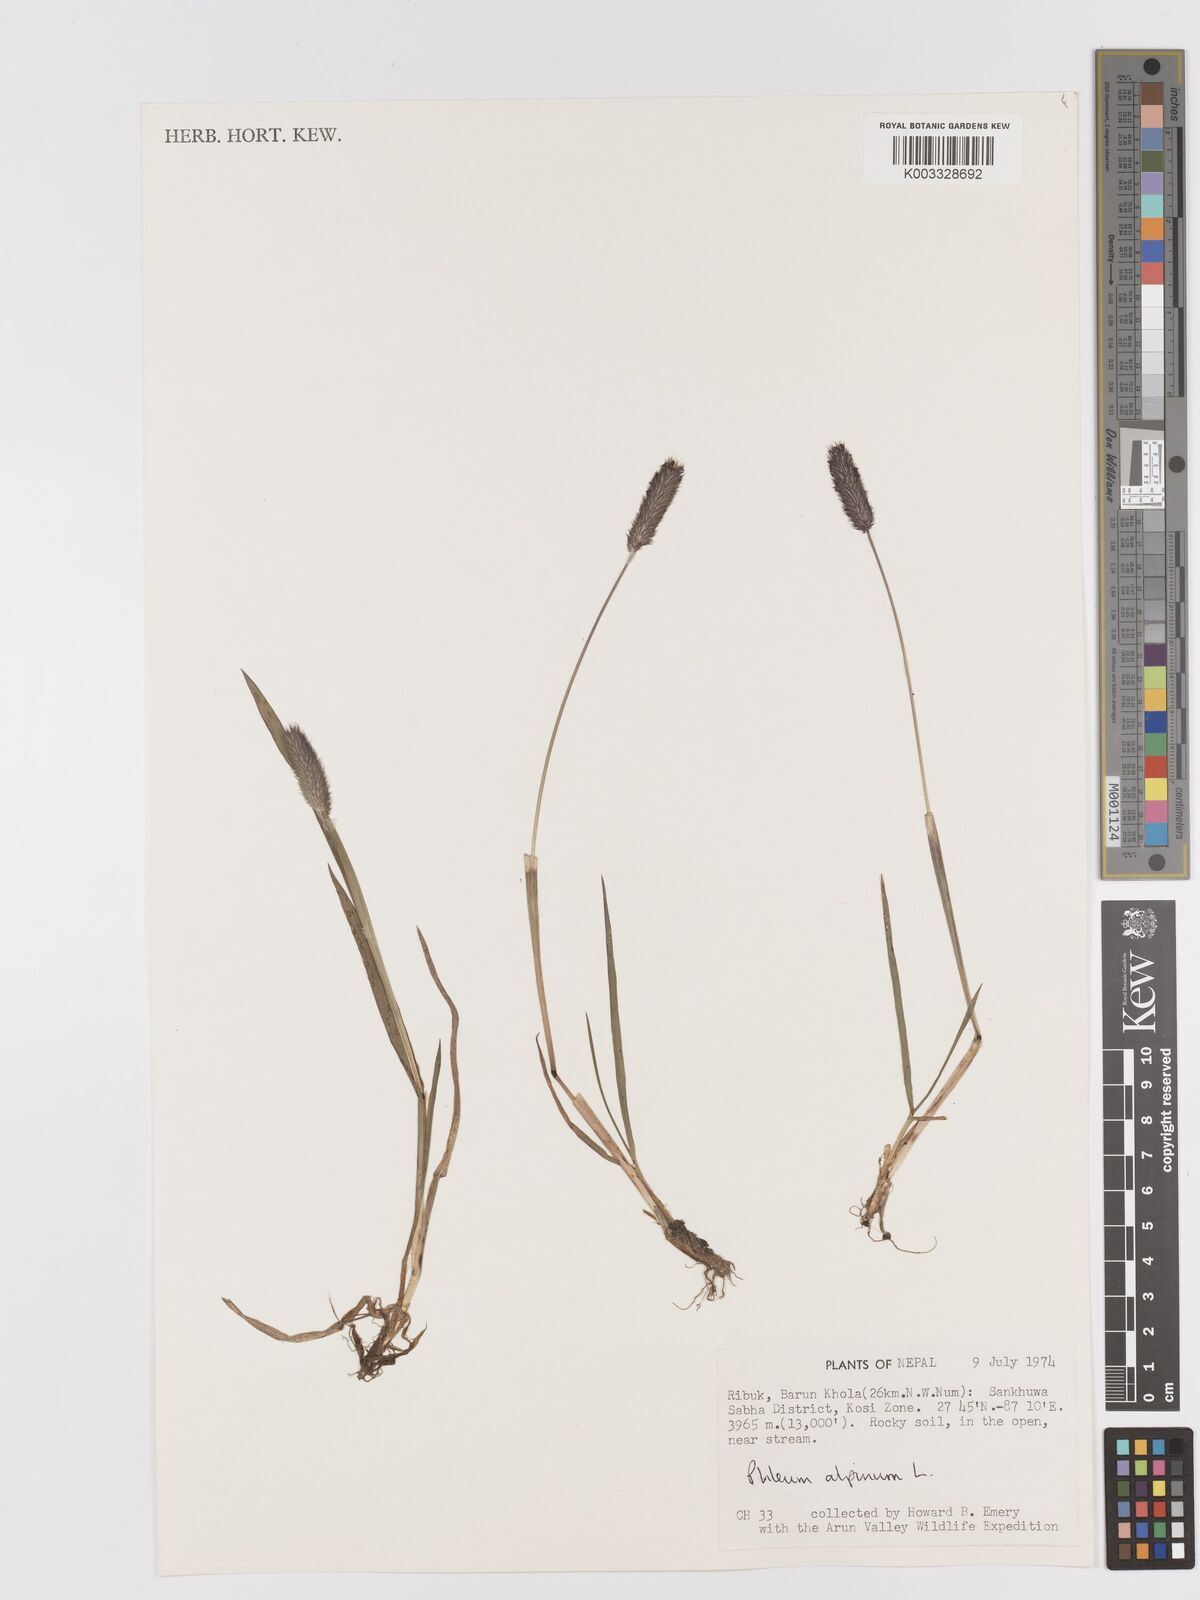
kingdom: Plantae
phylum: Tracheophyta
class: Liliopsida
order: Poales
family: Poaceae
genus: Phleum
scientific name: Phleum alpinum
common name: Alpine cat's-tail
